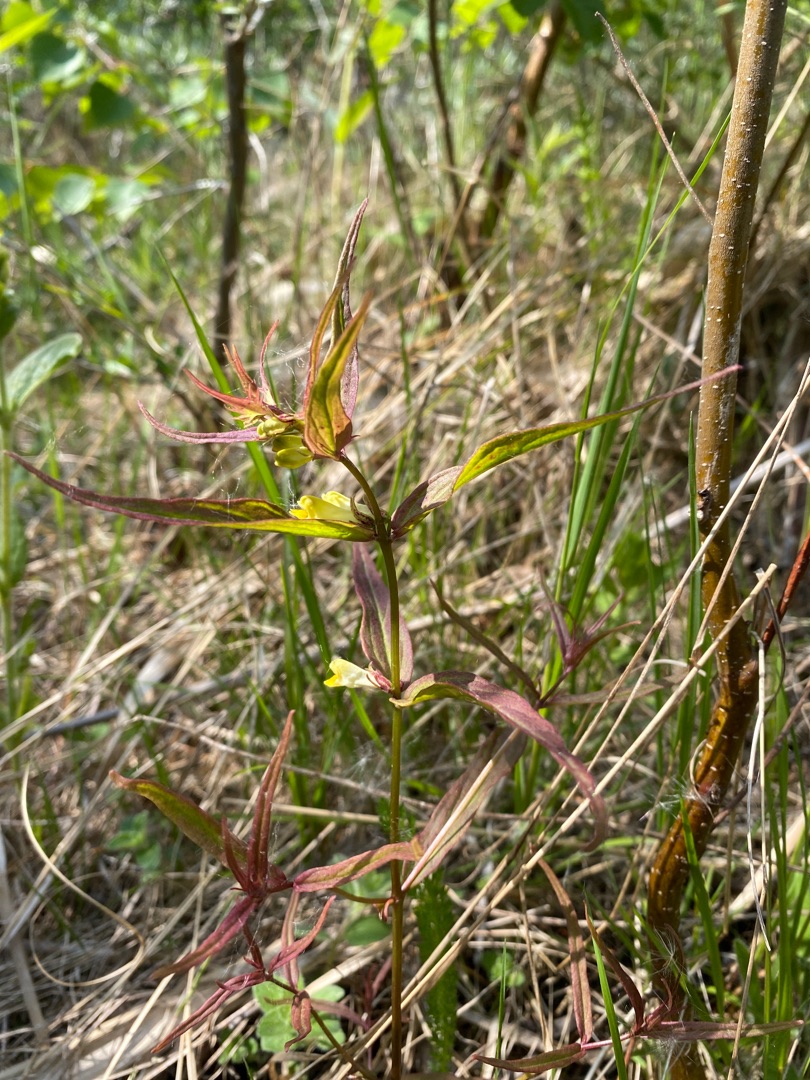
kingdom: Plantae
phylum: Tracheophyta
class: Magnoliopsida
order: Lamiales
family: Orobanchaceae
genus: Melampyrum
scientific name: Melampyrum pratense
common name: Almindelig kohvede
